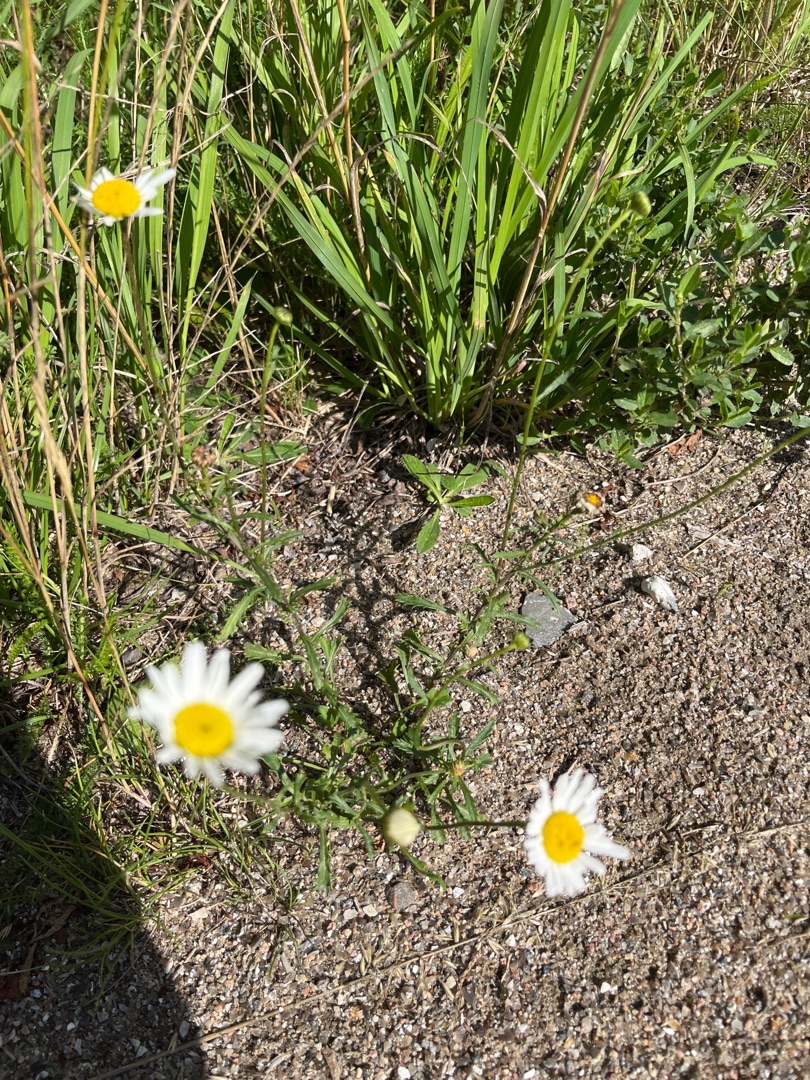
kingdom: Plantae
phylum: Tracheophyta
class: Magnoliopsida
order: Asterales
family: Asteraceae
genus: Leucanthemum
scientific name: Leucanthemum vulgare
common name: Hvid okseøje
